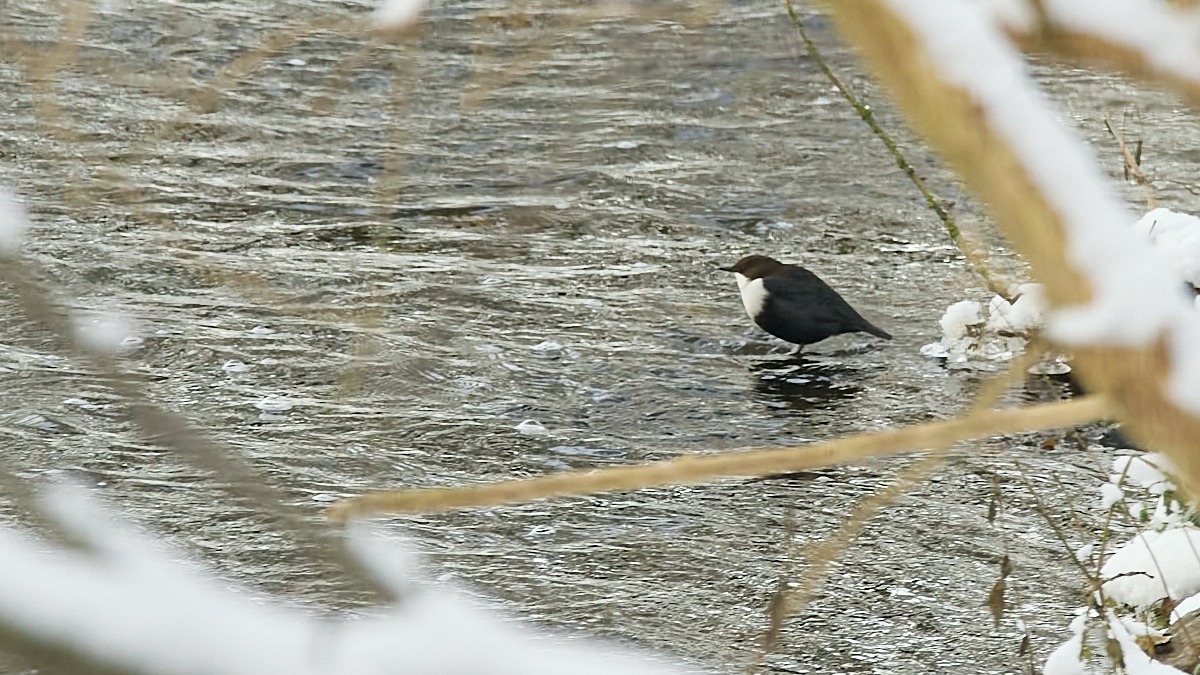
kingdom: Animalia
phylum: Chordata
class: Aves
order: Passeriformes
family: Cinclidae
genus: Cinclus
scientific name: Cinclus cinclus
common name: Vandstær
